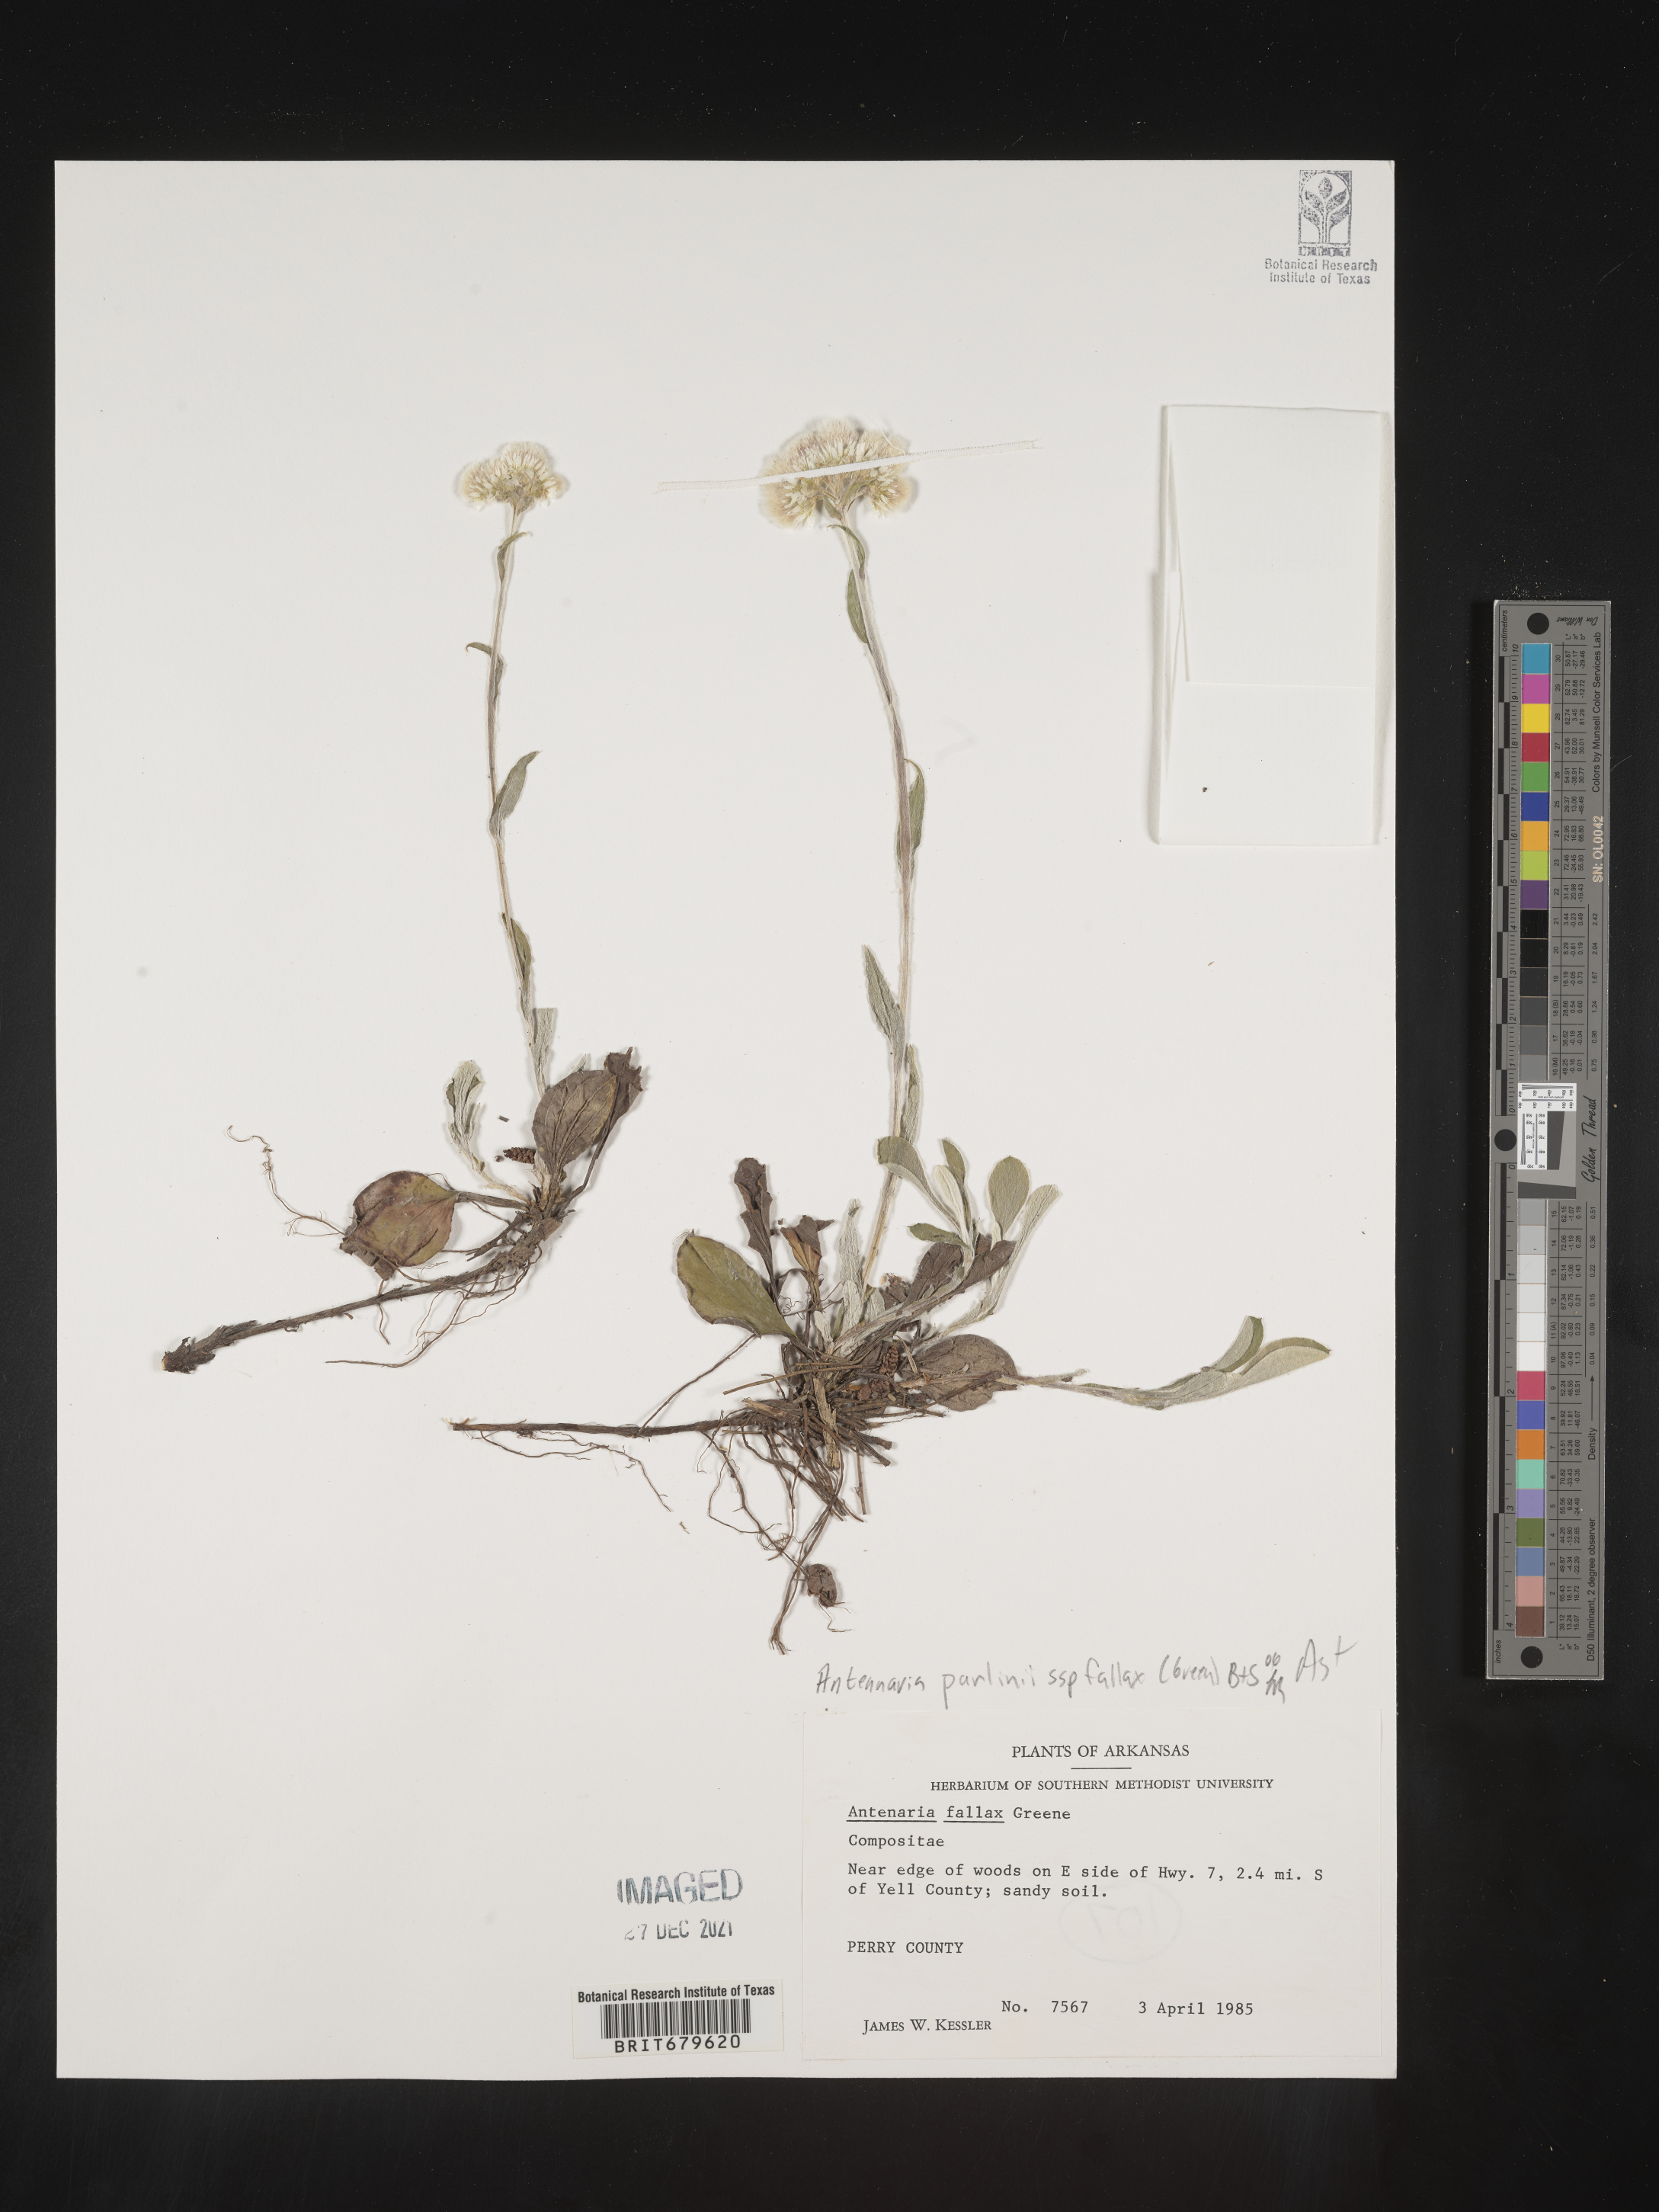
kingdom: Plantae
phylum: Tracheophyta
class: Magnoliopsida
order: Asterales
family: Asteraceae
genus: Antennaria
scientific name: Antennaria parlinii
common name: Parlin's pussytoes
